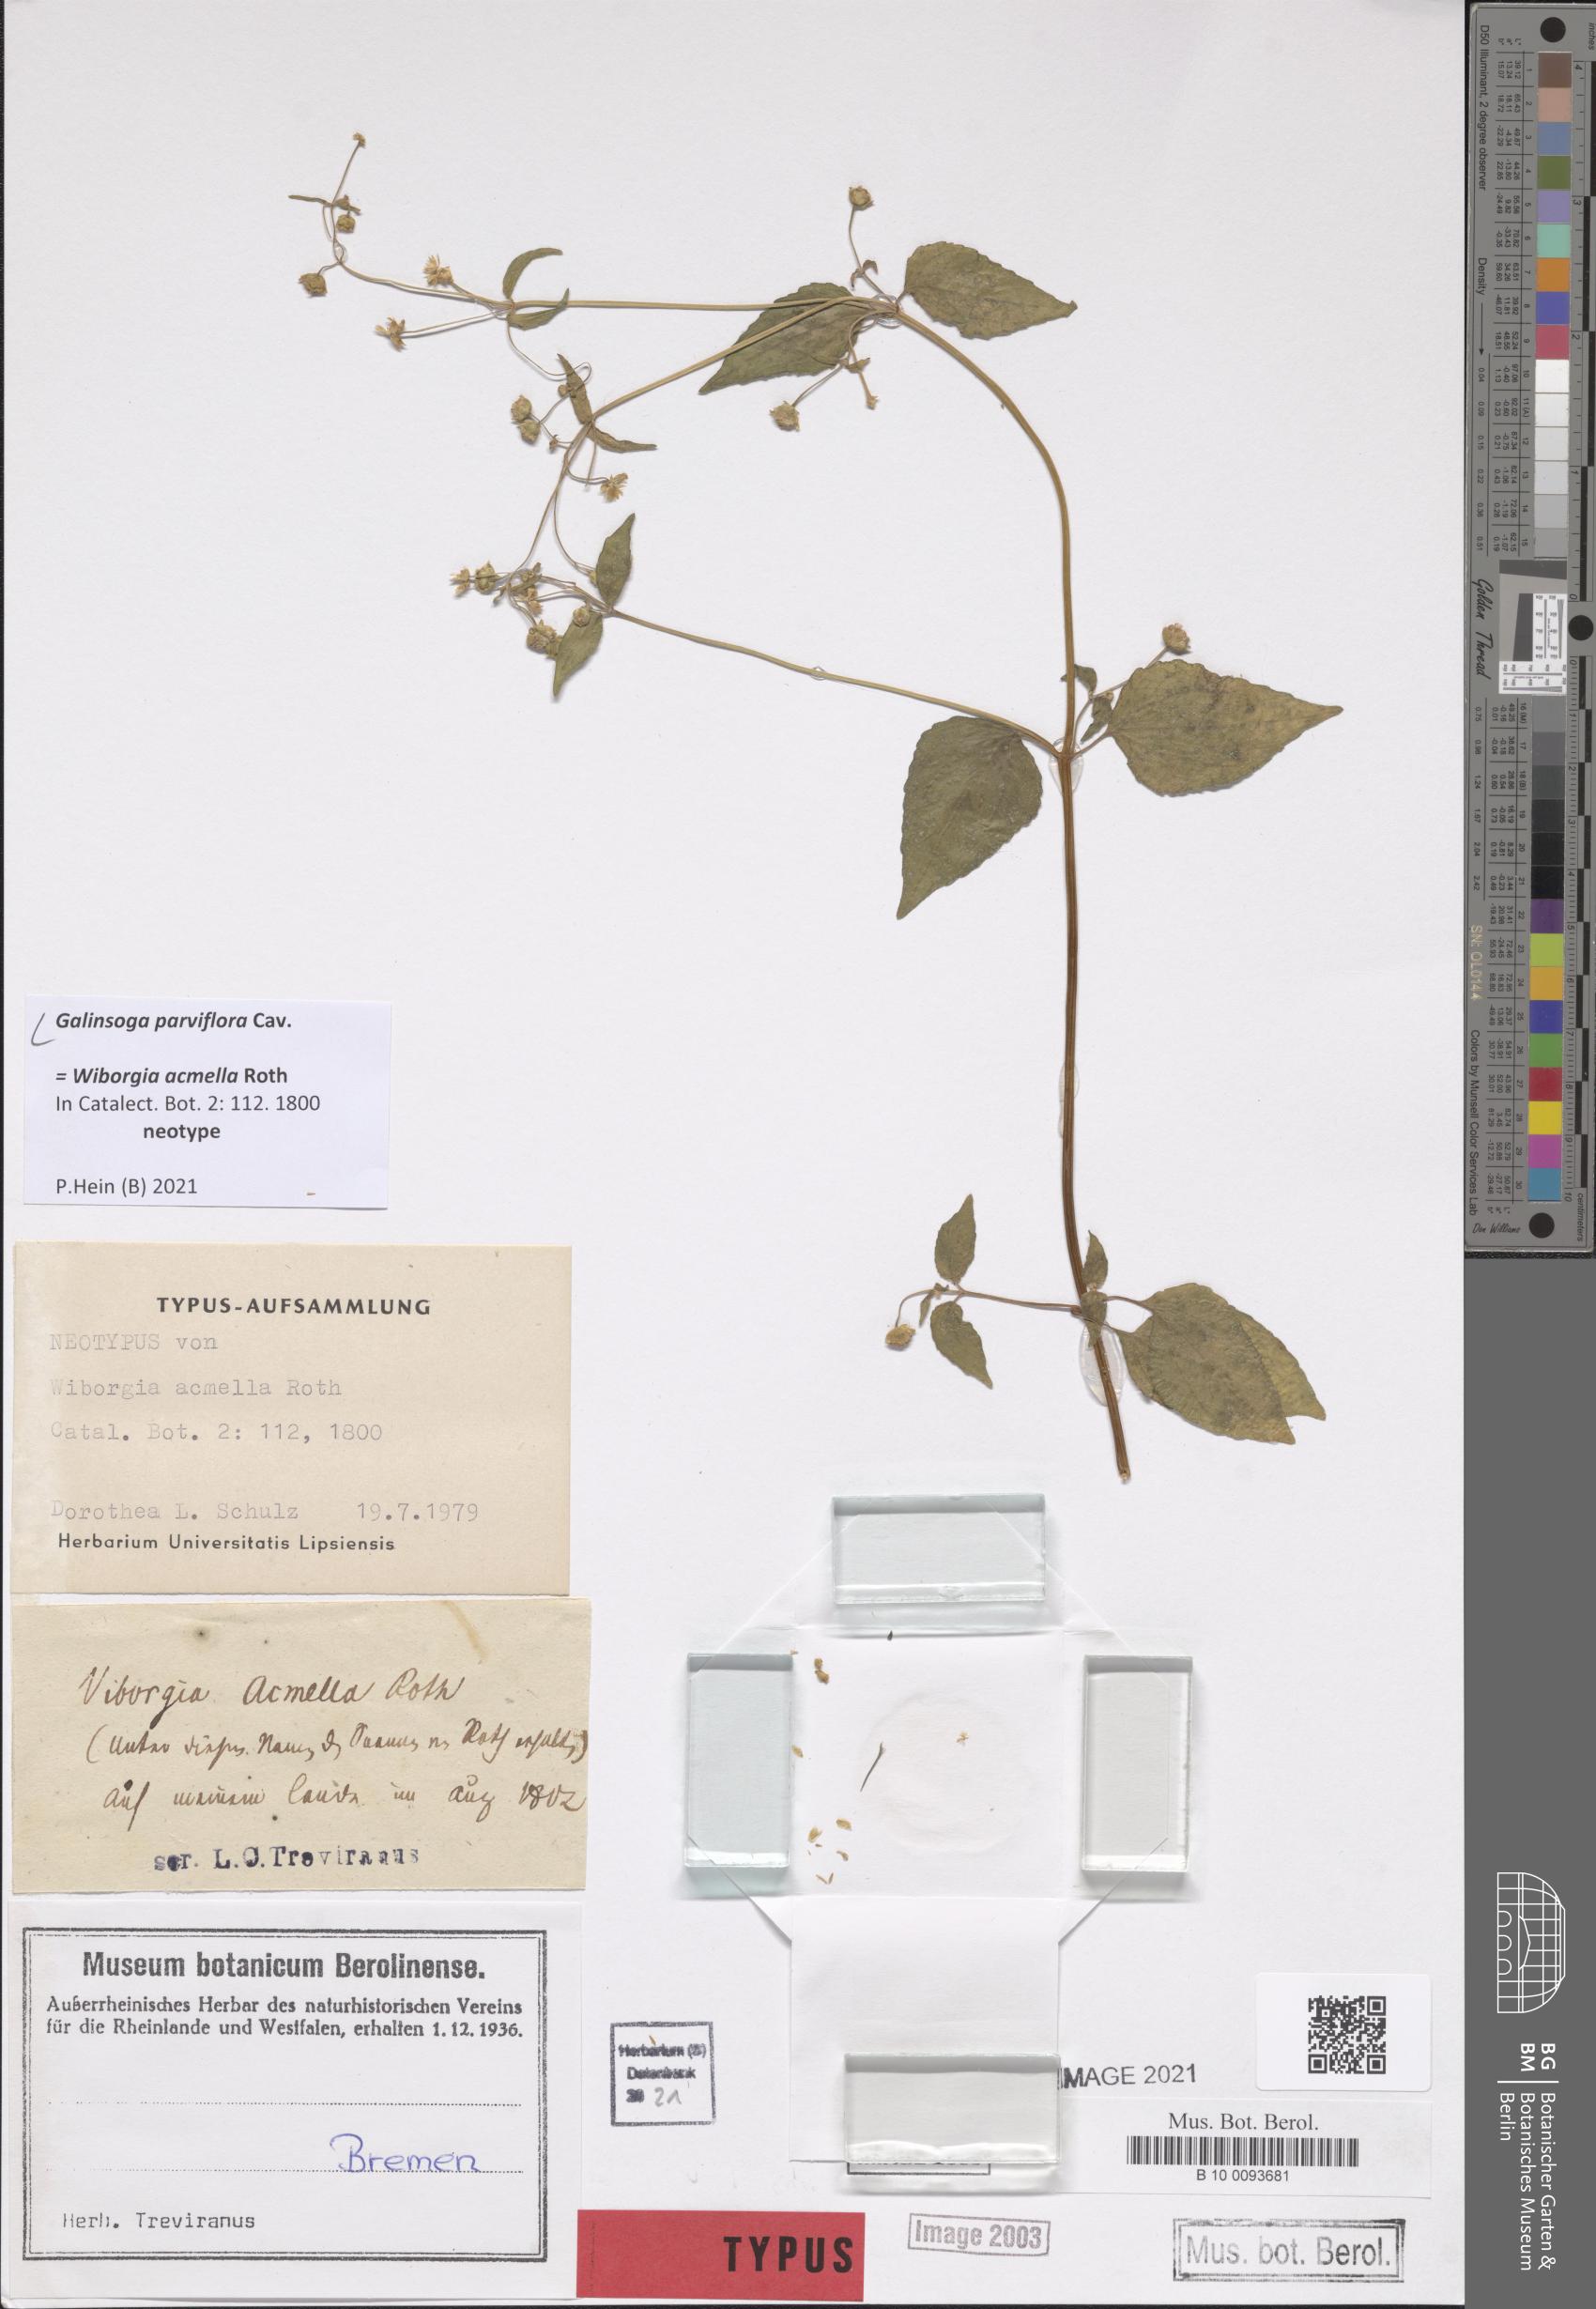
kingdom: Plantae
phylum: Tracheophyta
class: Magnoliopsida
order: Asterales
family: Asteraceae
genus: Galinsoga
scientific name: Galinsoga parviflora
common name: Gallant soldier
